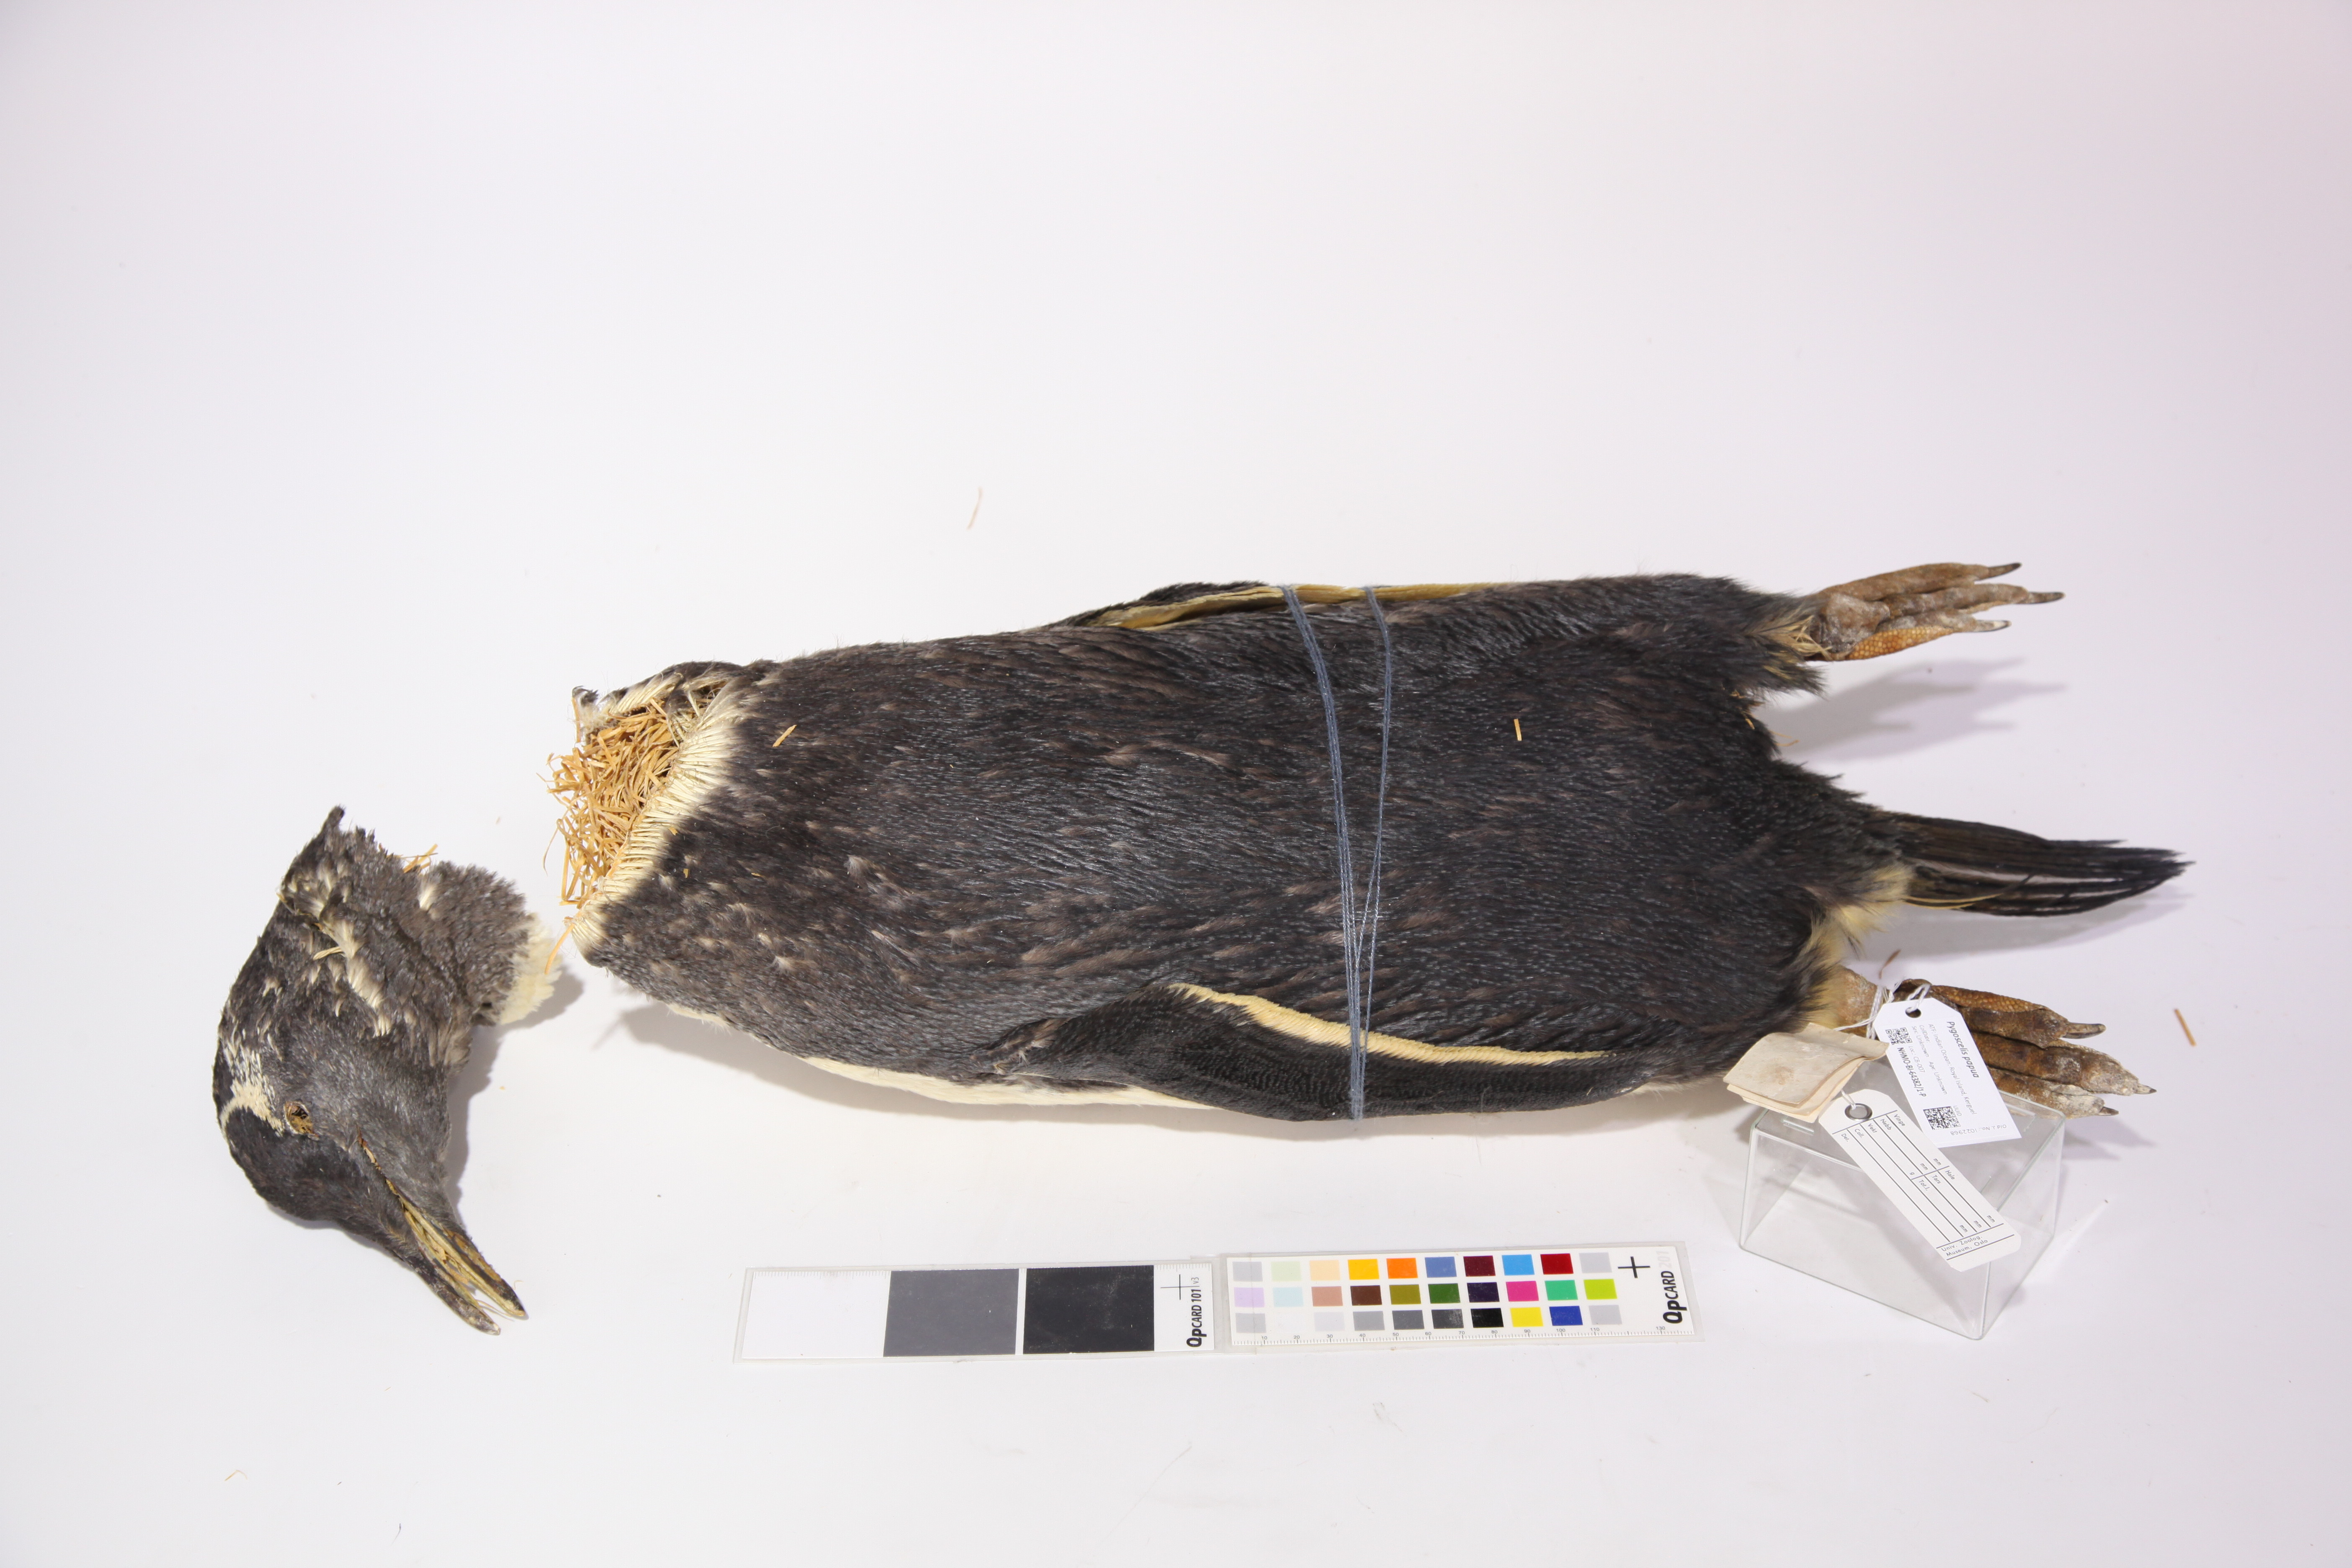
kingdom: Animalia
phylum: Chordata
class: Aves
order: Sphenisciformes
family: Spheniscidae
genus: Pygoscelis
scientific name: Pygoscelis papua
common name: Gentoo penguin
